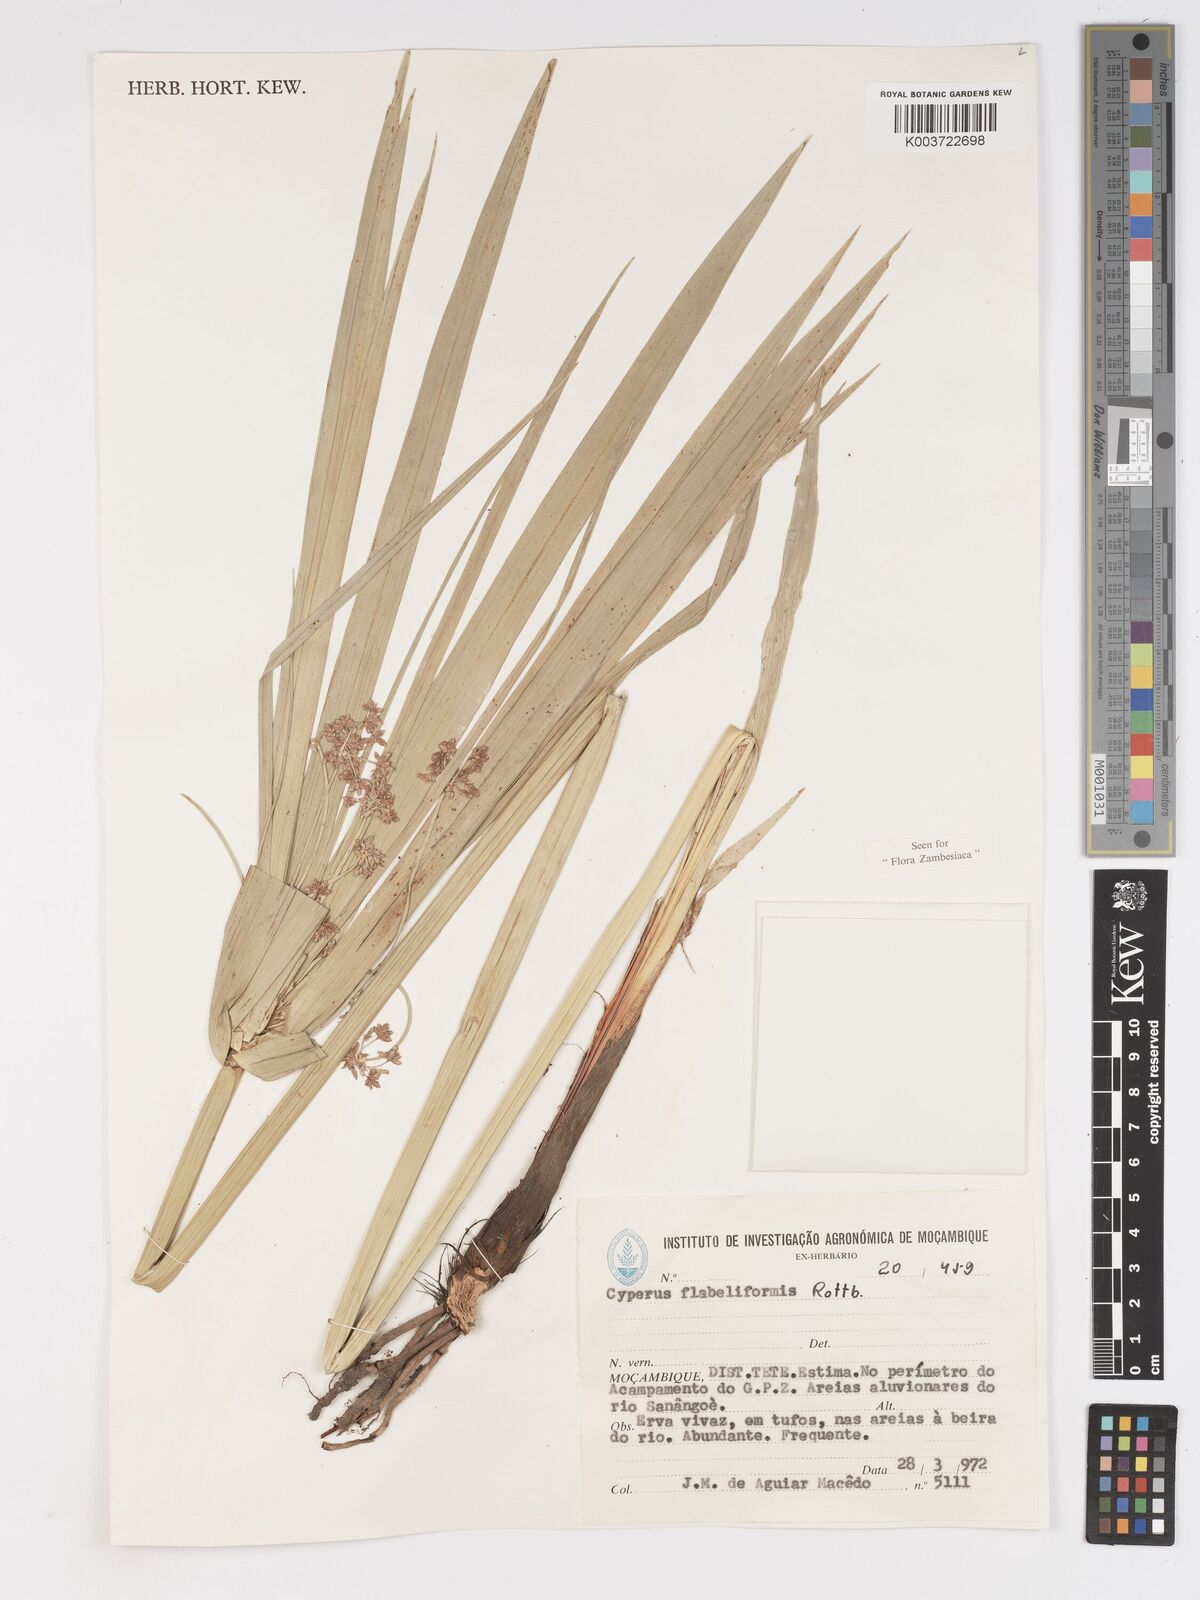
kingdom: Plantae
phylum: Tracheophyta
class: Liliopsida
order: Poales
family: Cyperaceae
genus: Cyperus
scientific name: Cyperus alternifolius
